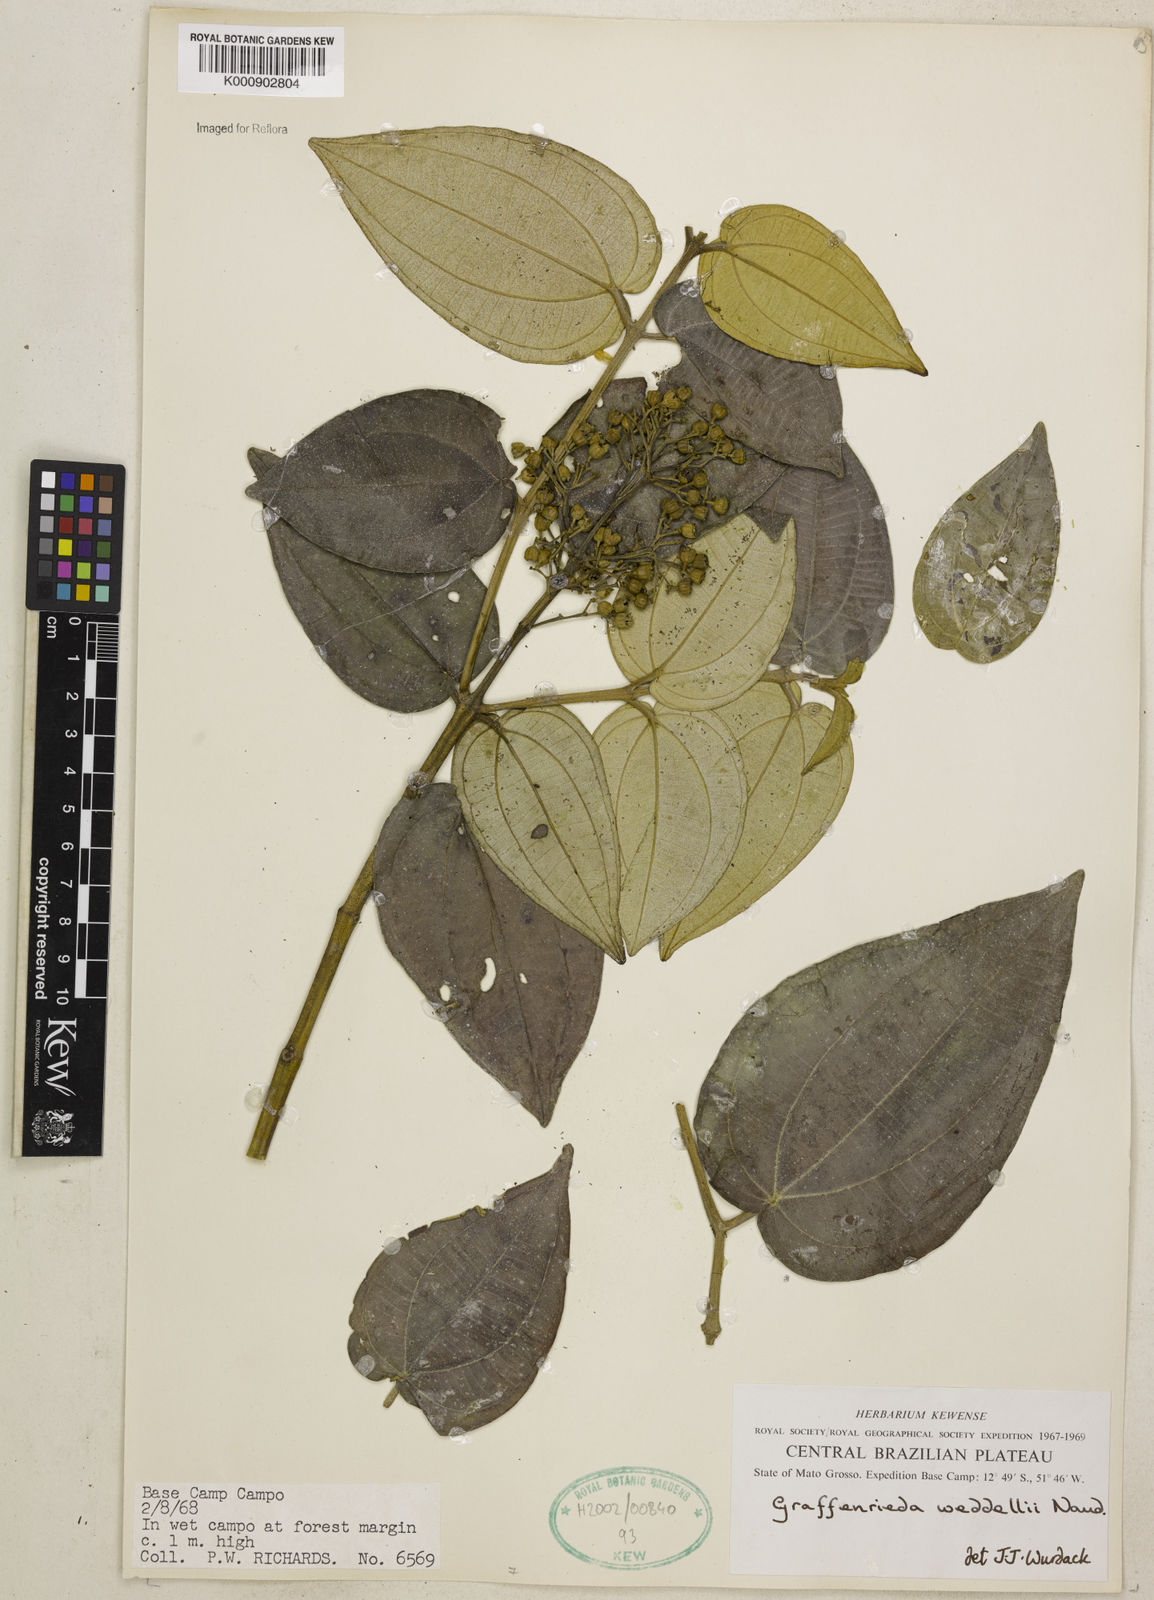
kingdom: Plantae
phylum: Tracheophyta
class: Magnoliopsida
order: Myrtales
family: Melastomataceae
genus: Graffenrieda
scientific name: Graffenrieda weddellii
